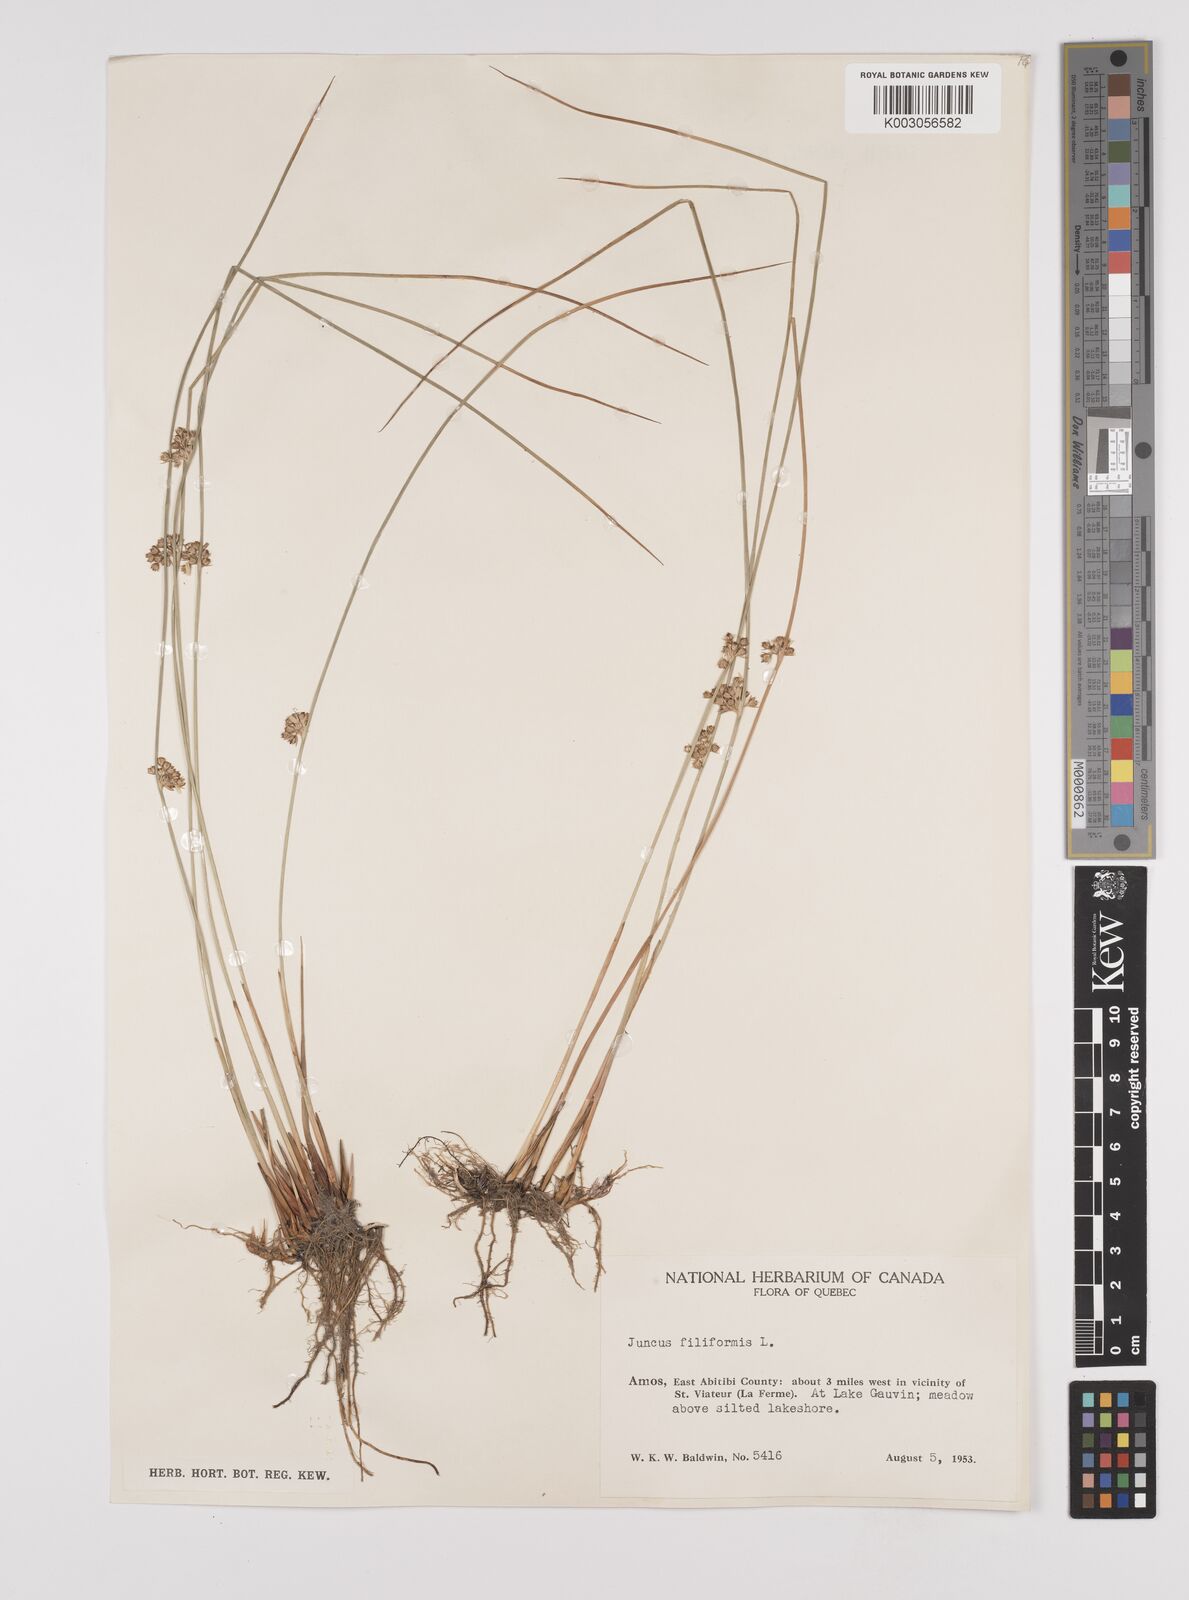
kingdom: Plantae
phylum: Tracheophyta
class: Liliopsida
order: Poales
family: Juncaceae
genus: Juncus
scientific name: Juncus filiformis
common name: Thread rush
